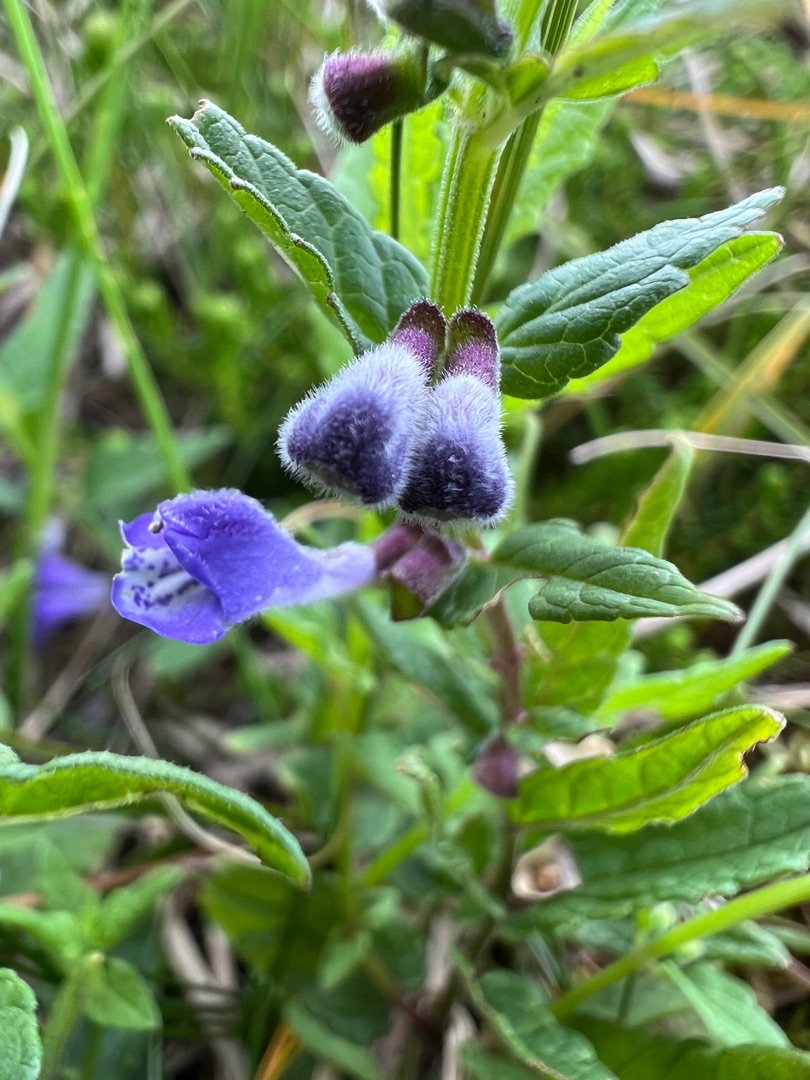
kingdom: Plantae
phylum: Tracheophyta
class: Magnoliopsida
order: Lamiales
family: Lamiaceae
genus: Scutellaria
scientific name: Scutellaria galericulata
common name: Almindelig skjolddrager
